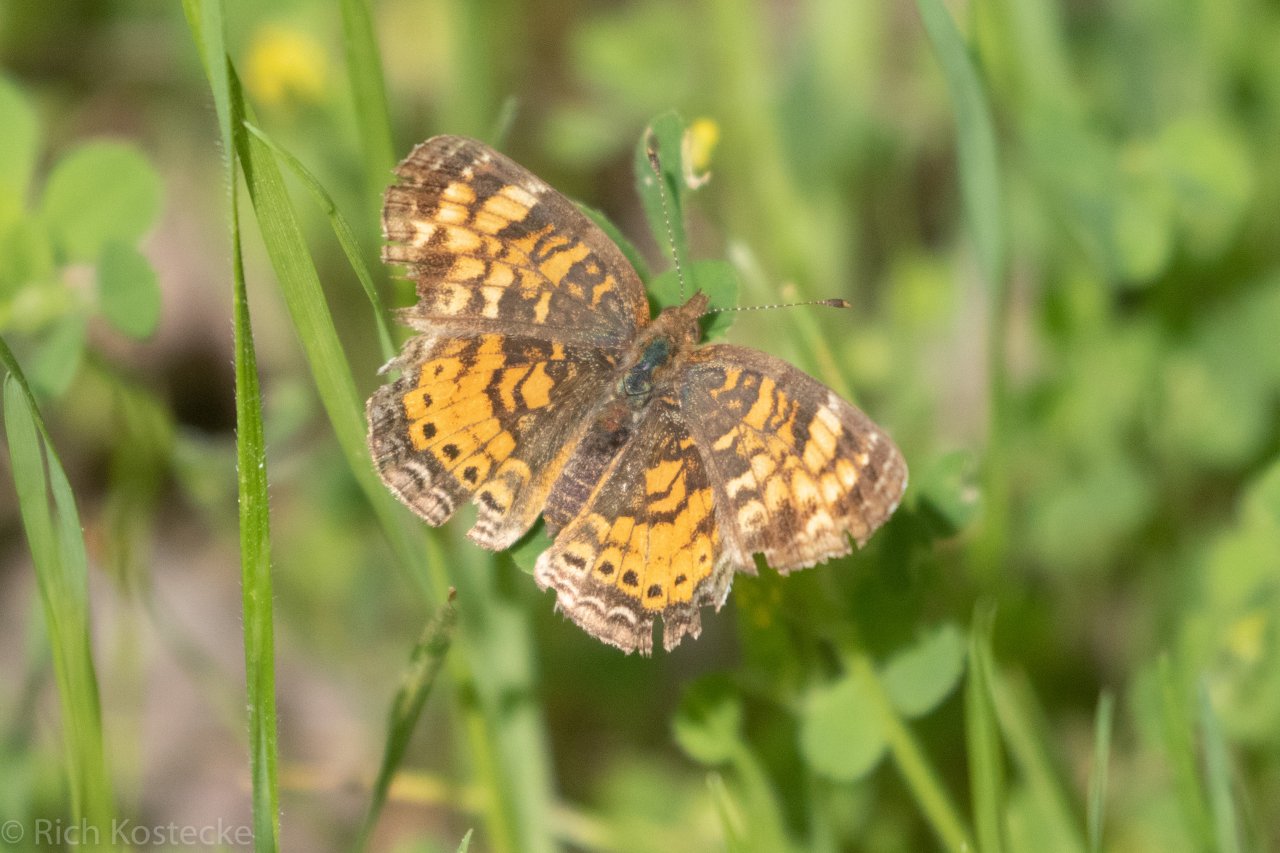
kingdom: Animalia
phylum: Arthropoda
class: Insecta
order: Lepidoptera
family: Nymphalidae
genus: Phyciodes
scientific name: Phyciodes tharos
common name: Pearl Crescent
